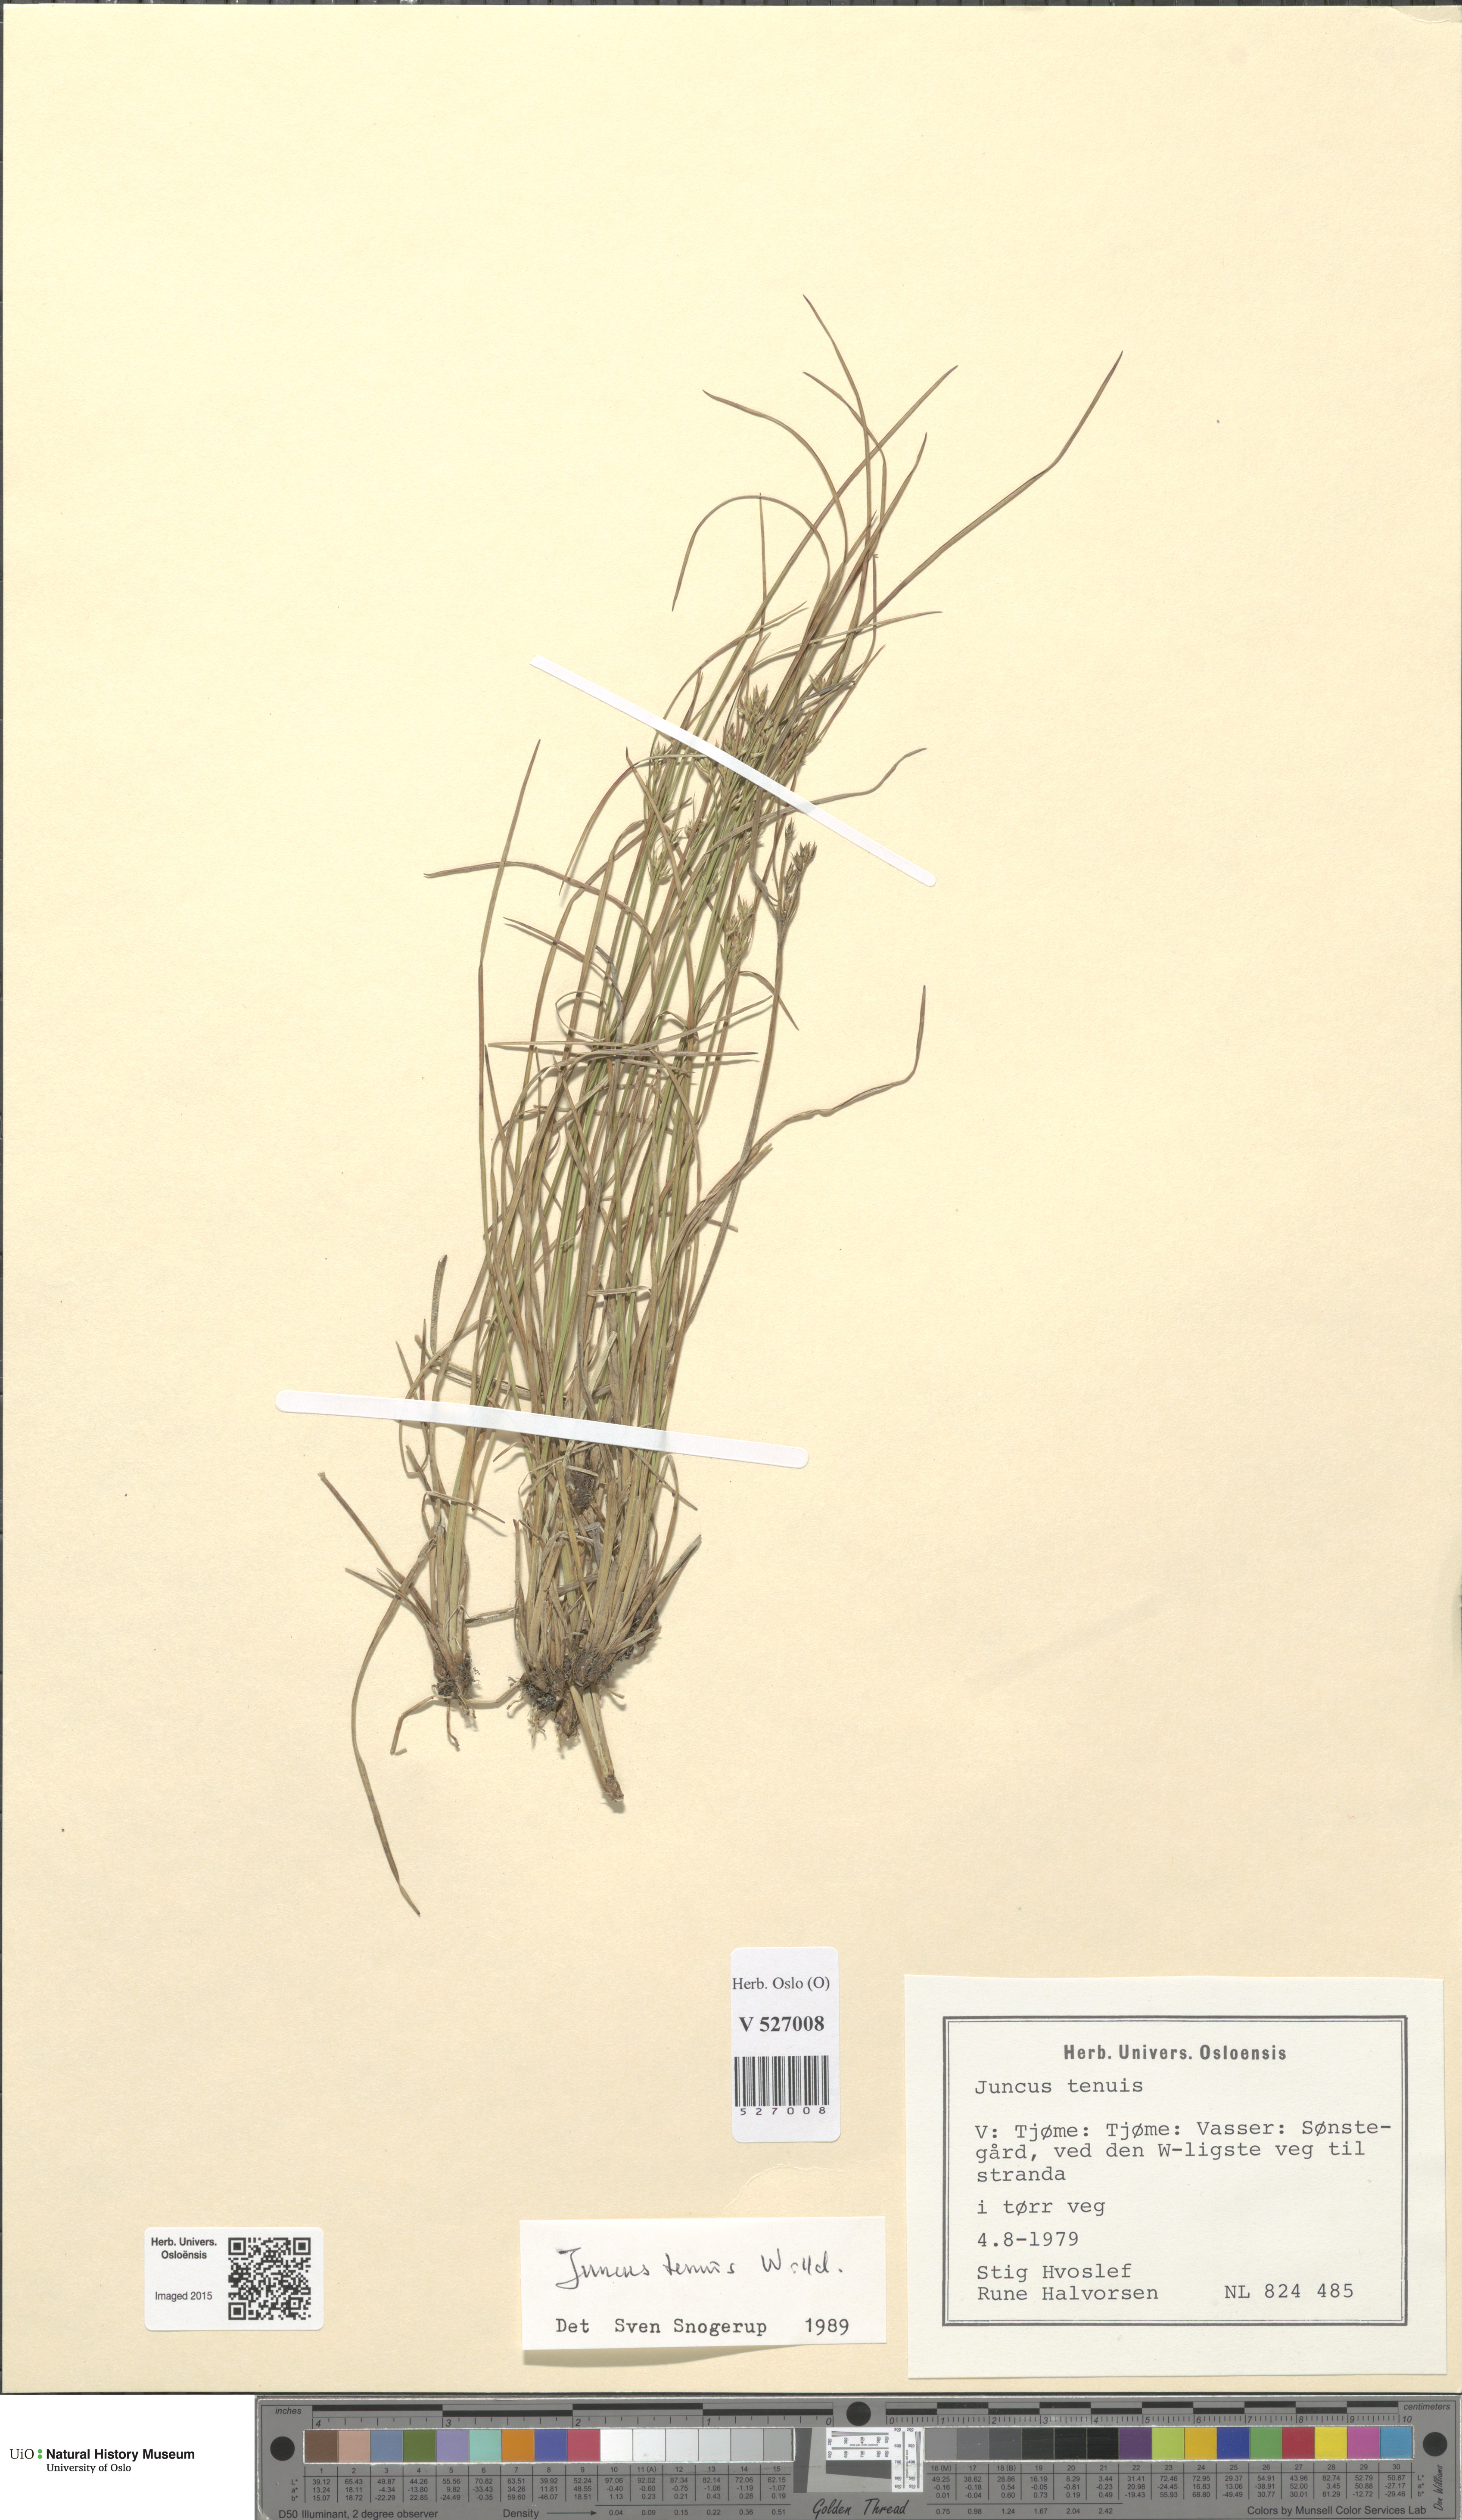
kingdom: Plantae
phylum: Tracheophyta
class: Liliopsida
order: Poales
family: Juncaceae
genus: Juncus
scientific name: Juncus tenuis
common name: Slender rush
